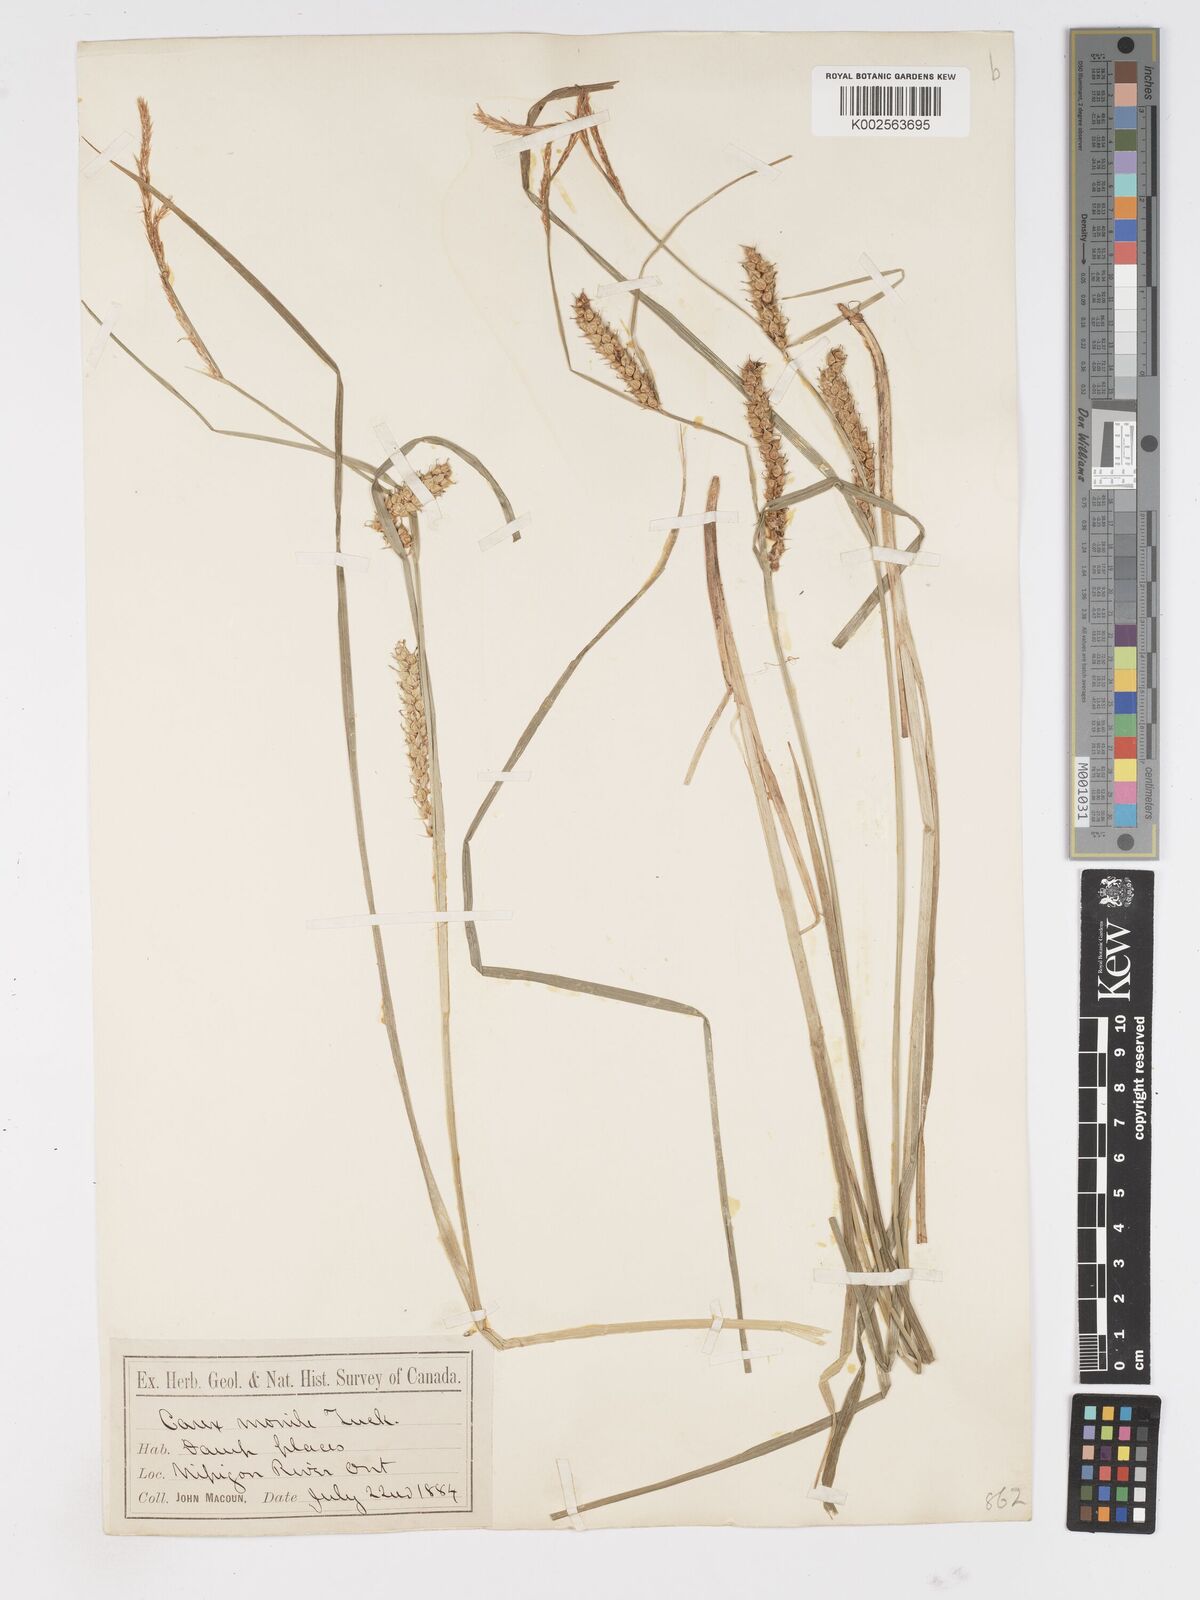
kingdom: Plantae
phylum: Tracheophyta
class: Liliopsida
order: Poales
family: Cyperaceae
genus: Carex
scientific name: Carex vesicaria
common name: Bladder-sedge
